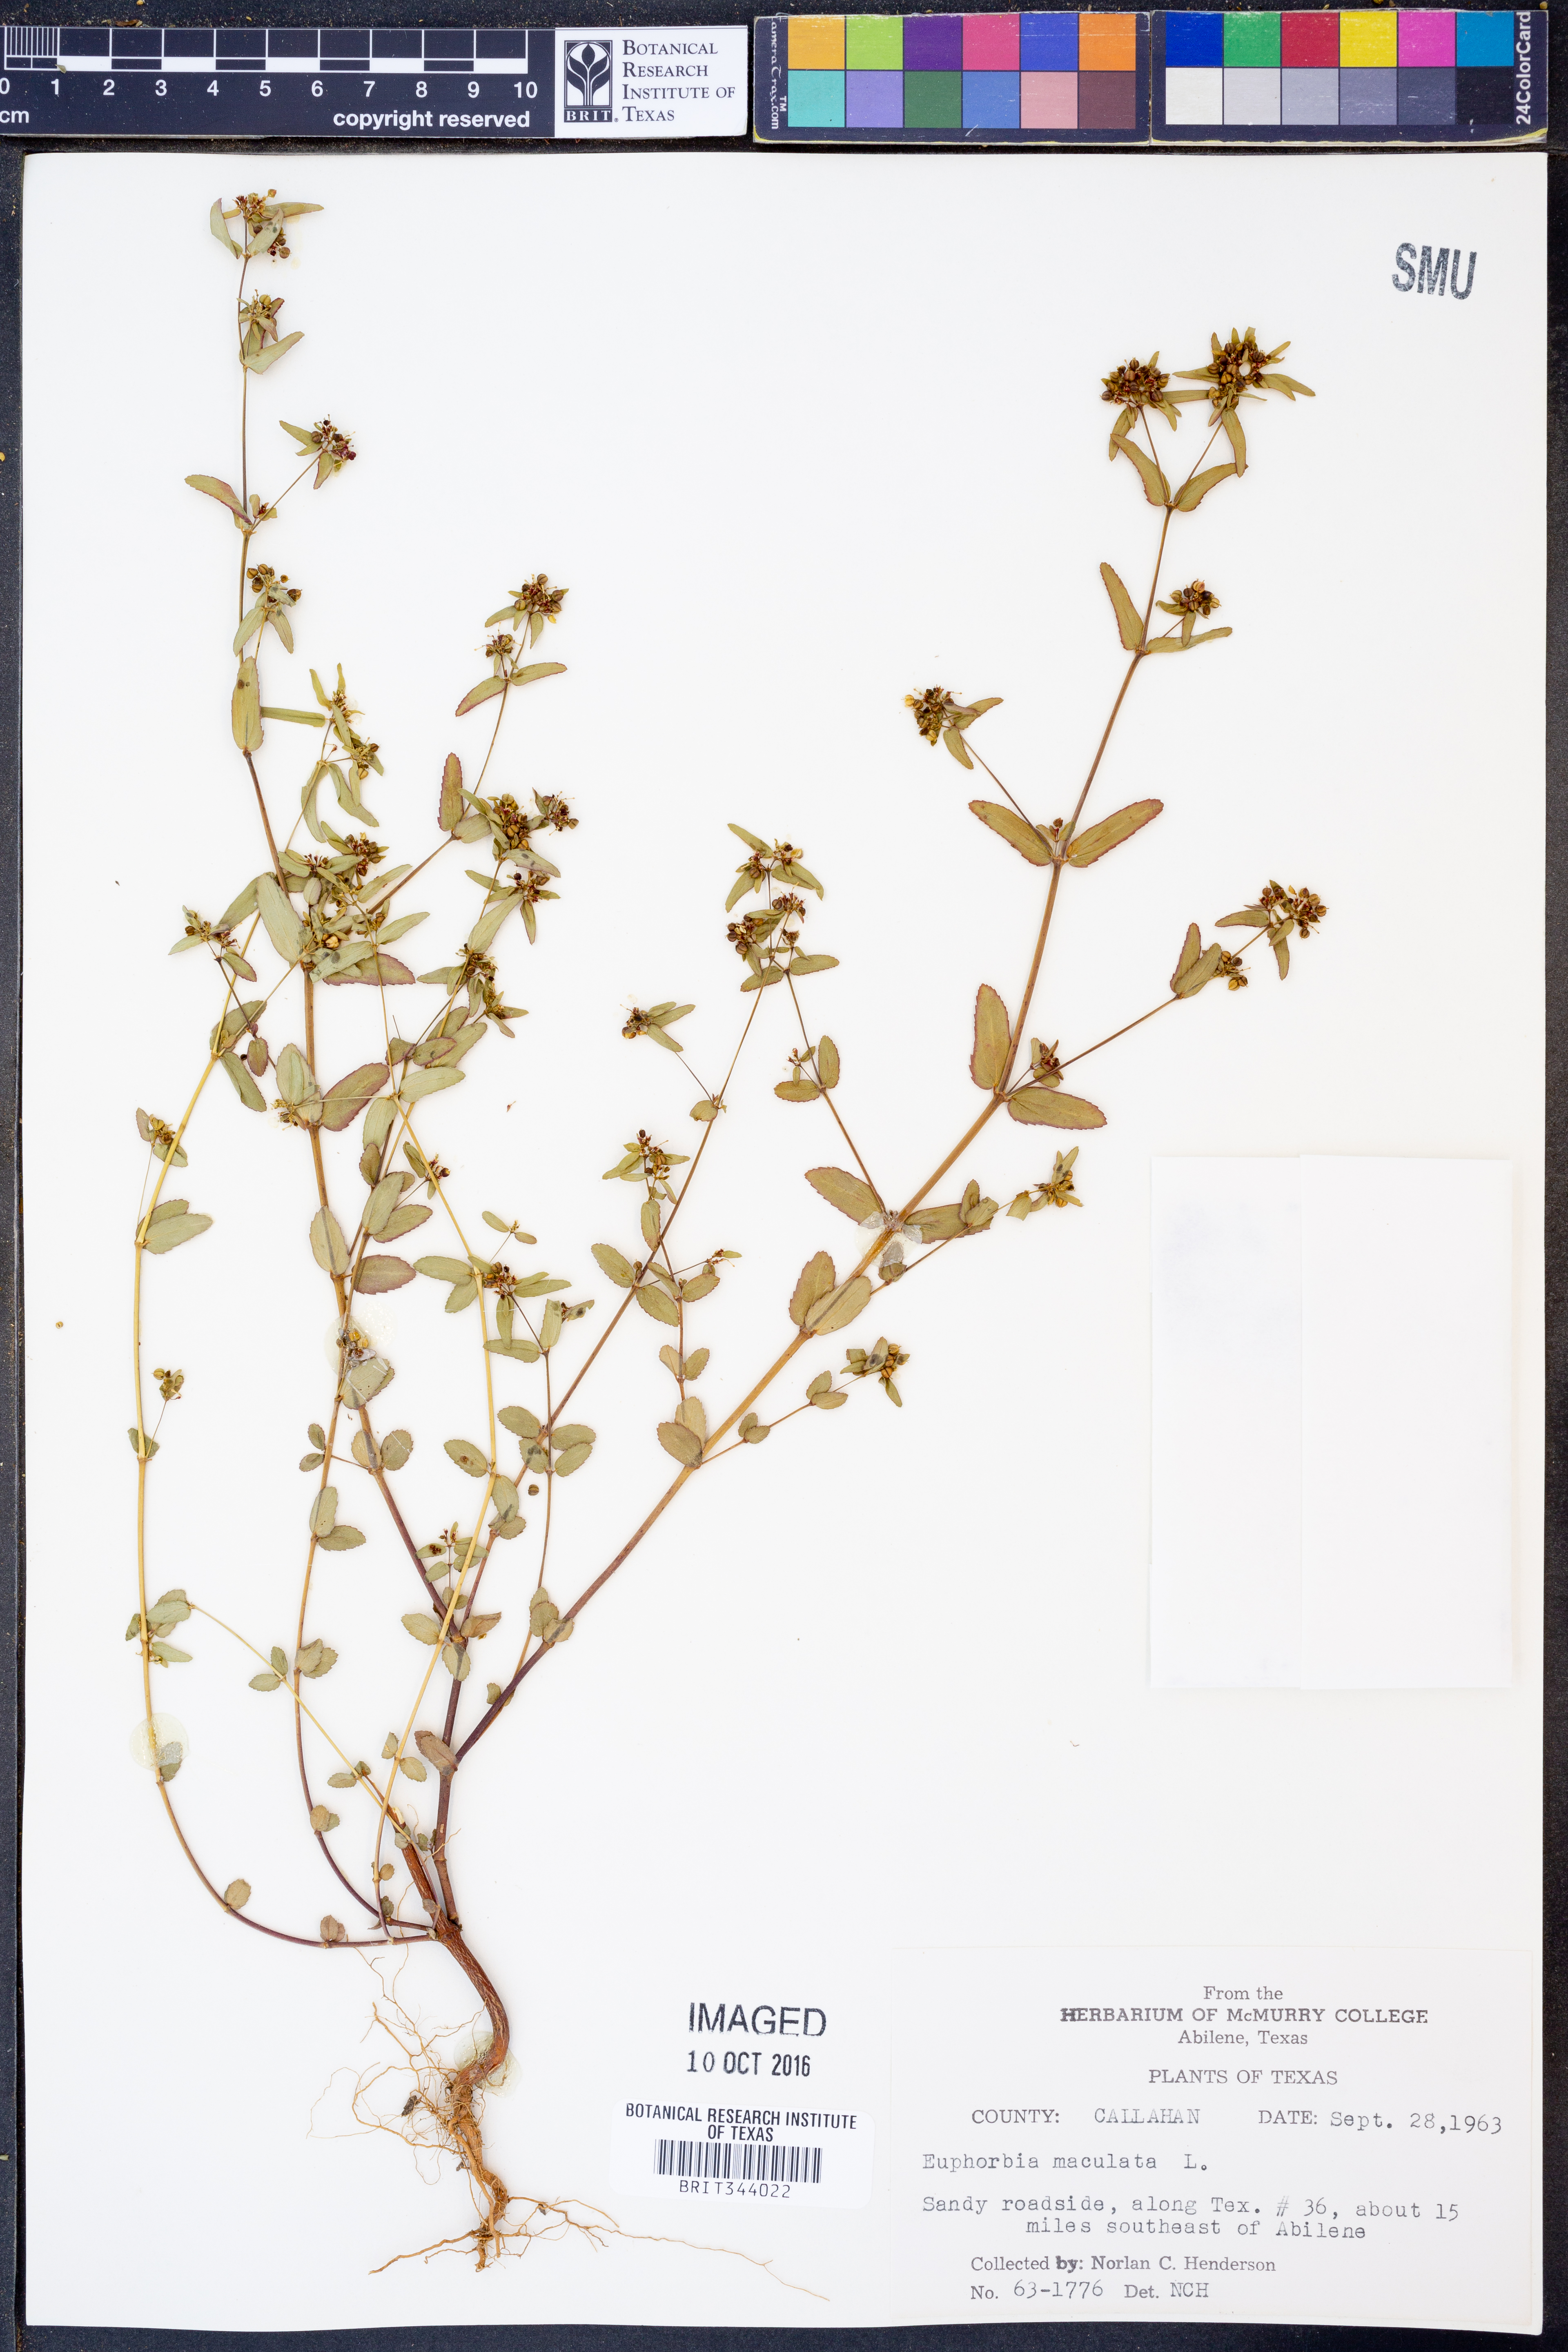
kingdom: Plantae
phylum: Tracheophyta
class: Magnoliopsida
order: Malpighiales
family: Euphorbiaceae
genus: Euphorbia
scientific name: Euphorbia maculata
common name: Spotted spurge
